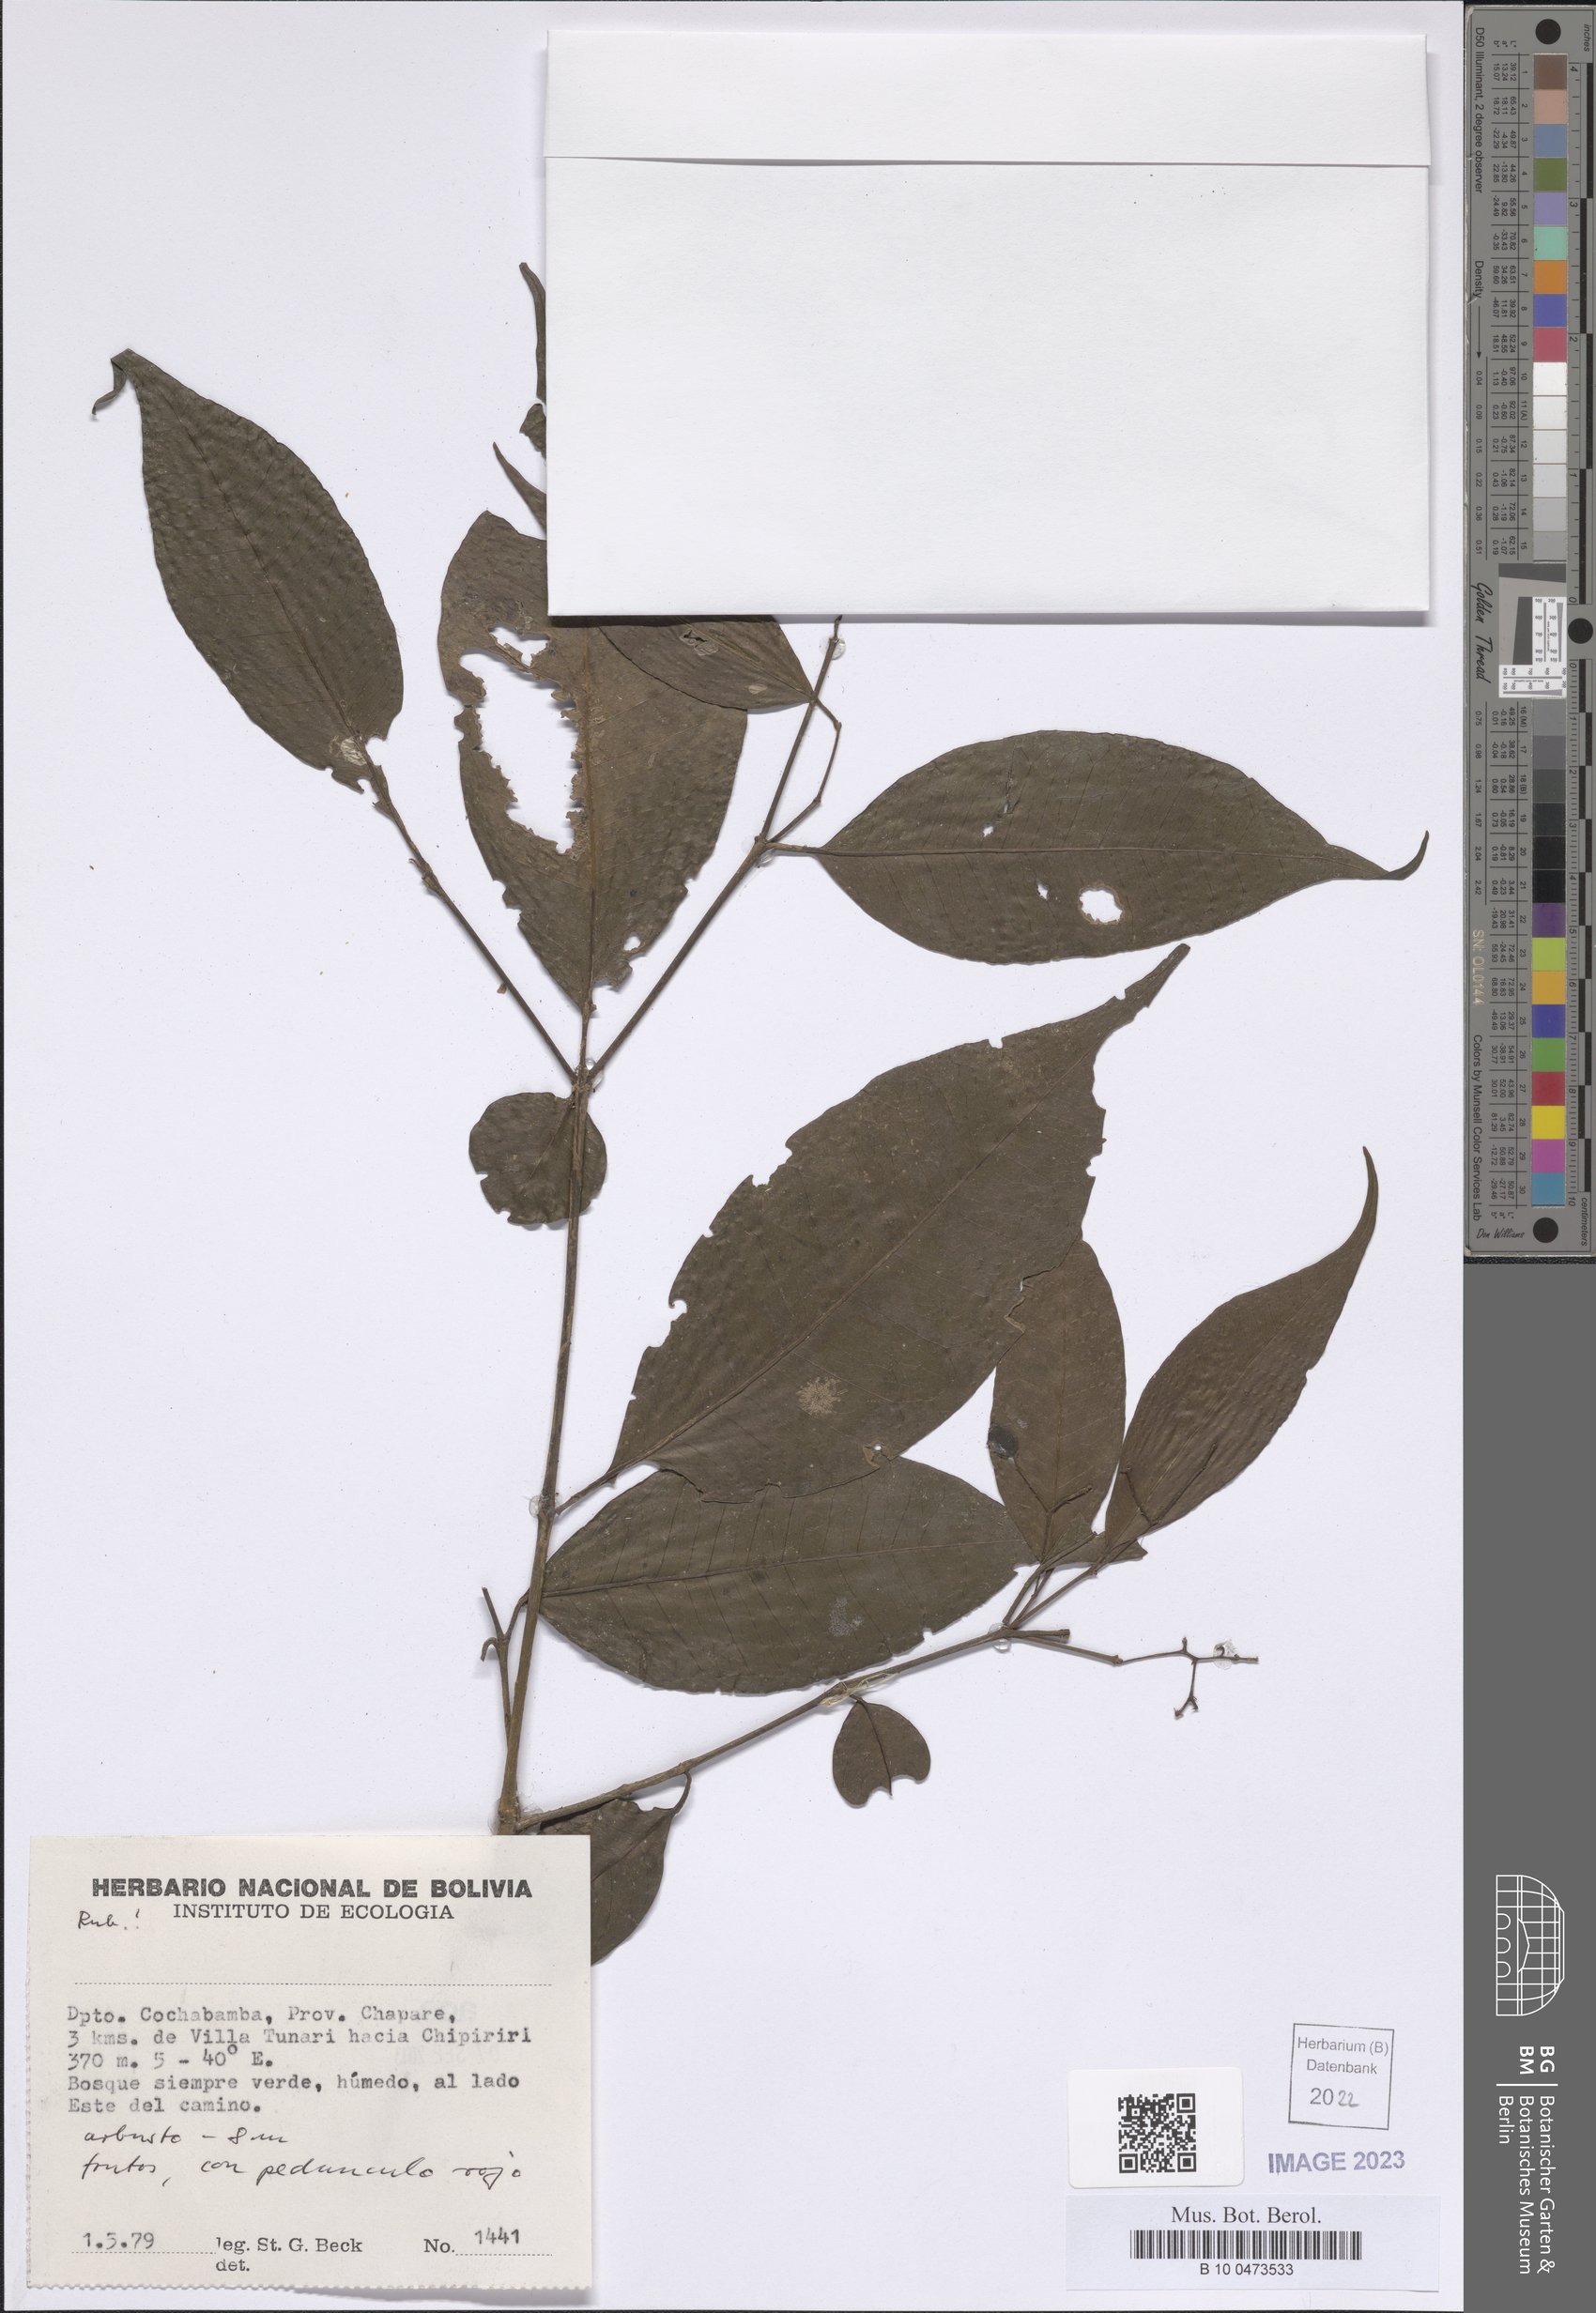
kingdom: Plantae
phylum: Tracheophyta
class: Magnoliopsida
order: Gentianales
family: Rubiaceae
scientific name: Rubiaceae
